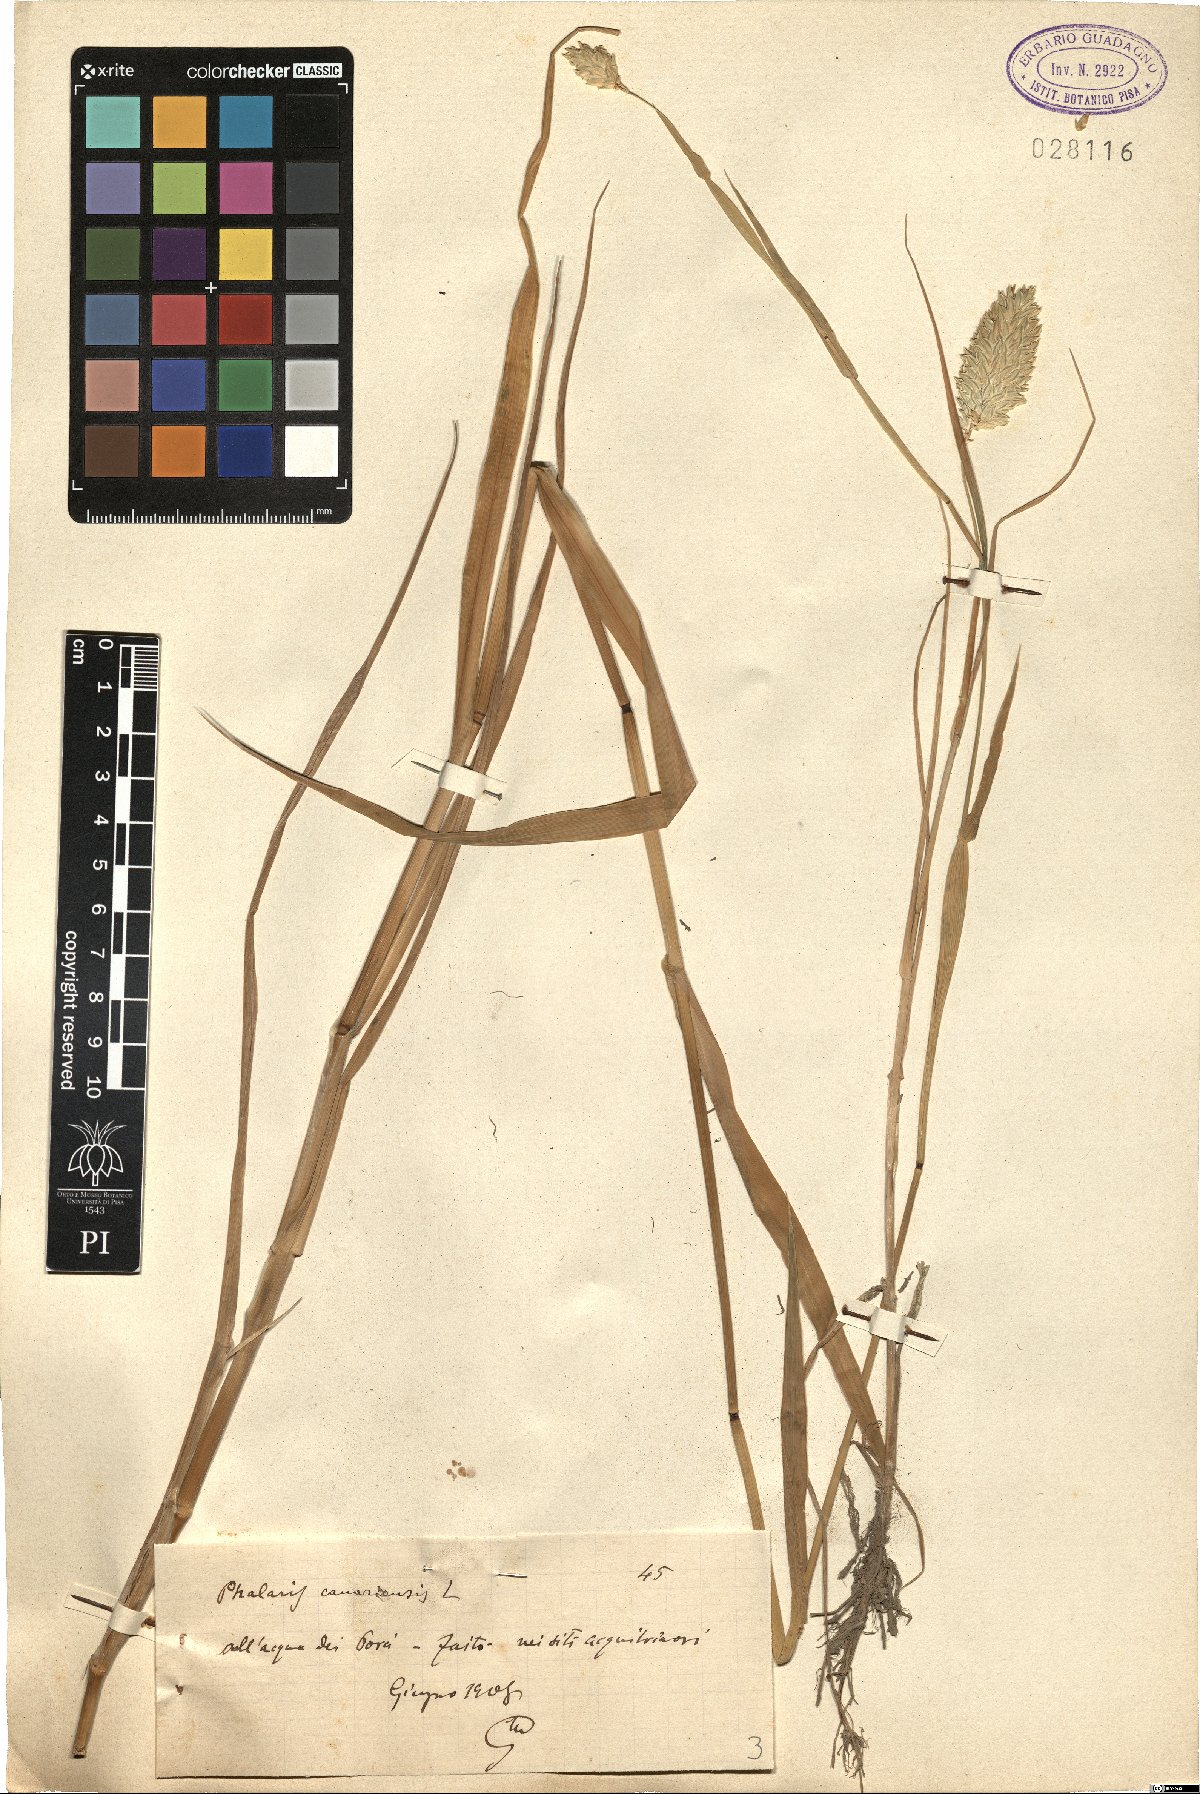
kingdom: Plantae
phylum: Tracheophyta
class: Liliopsida
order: Poales
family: Poaceae
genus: Phalaris
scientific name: Phalaris canariensis
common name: Annual canarygrass
